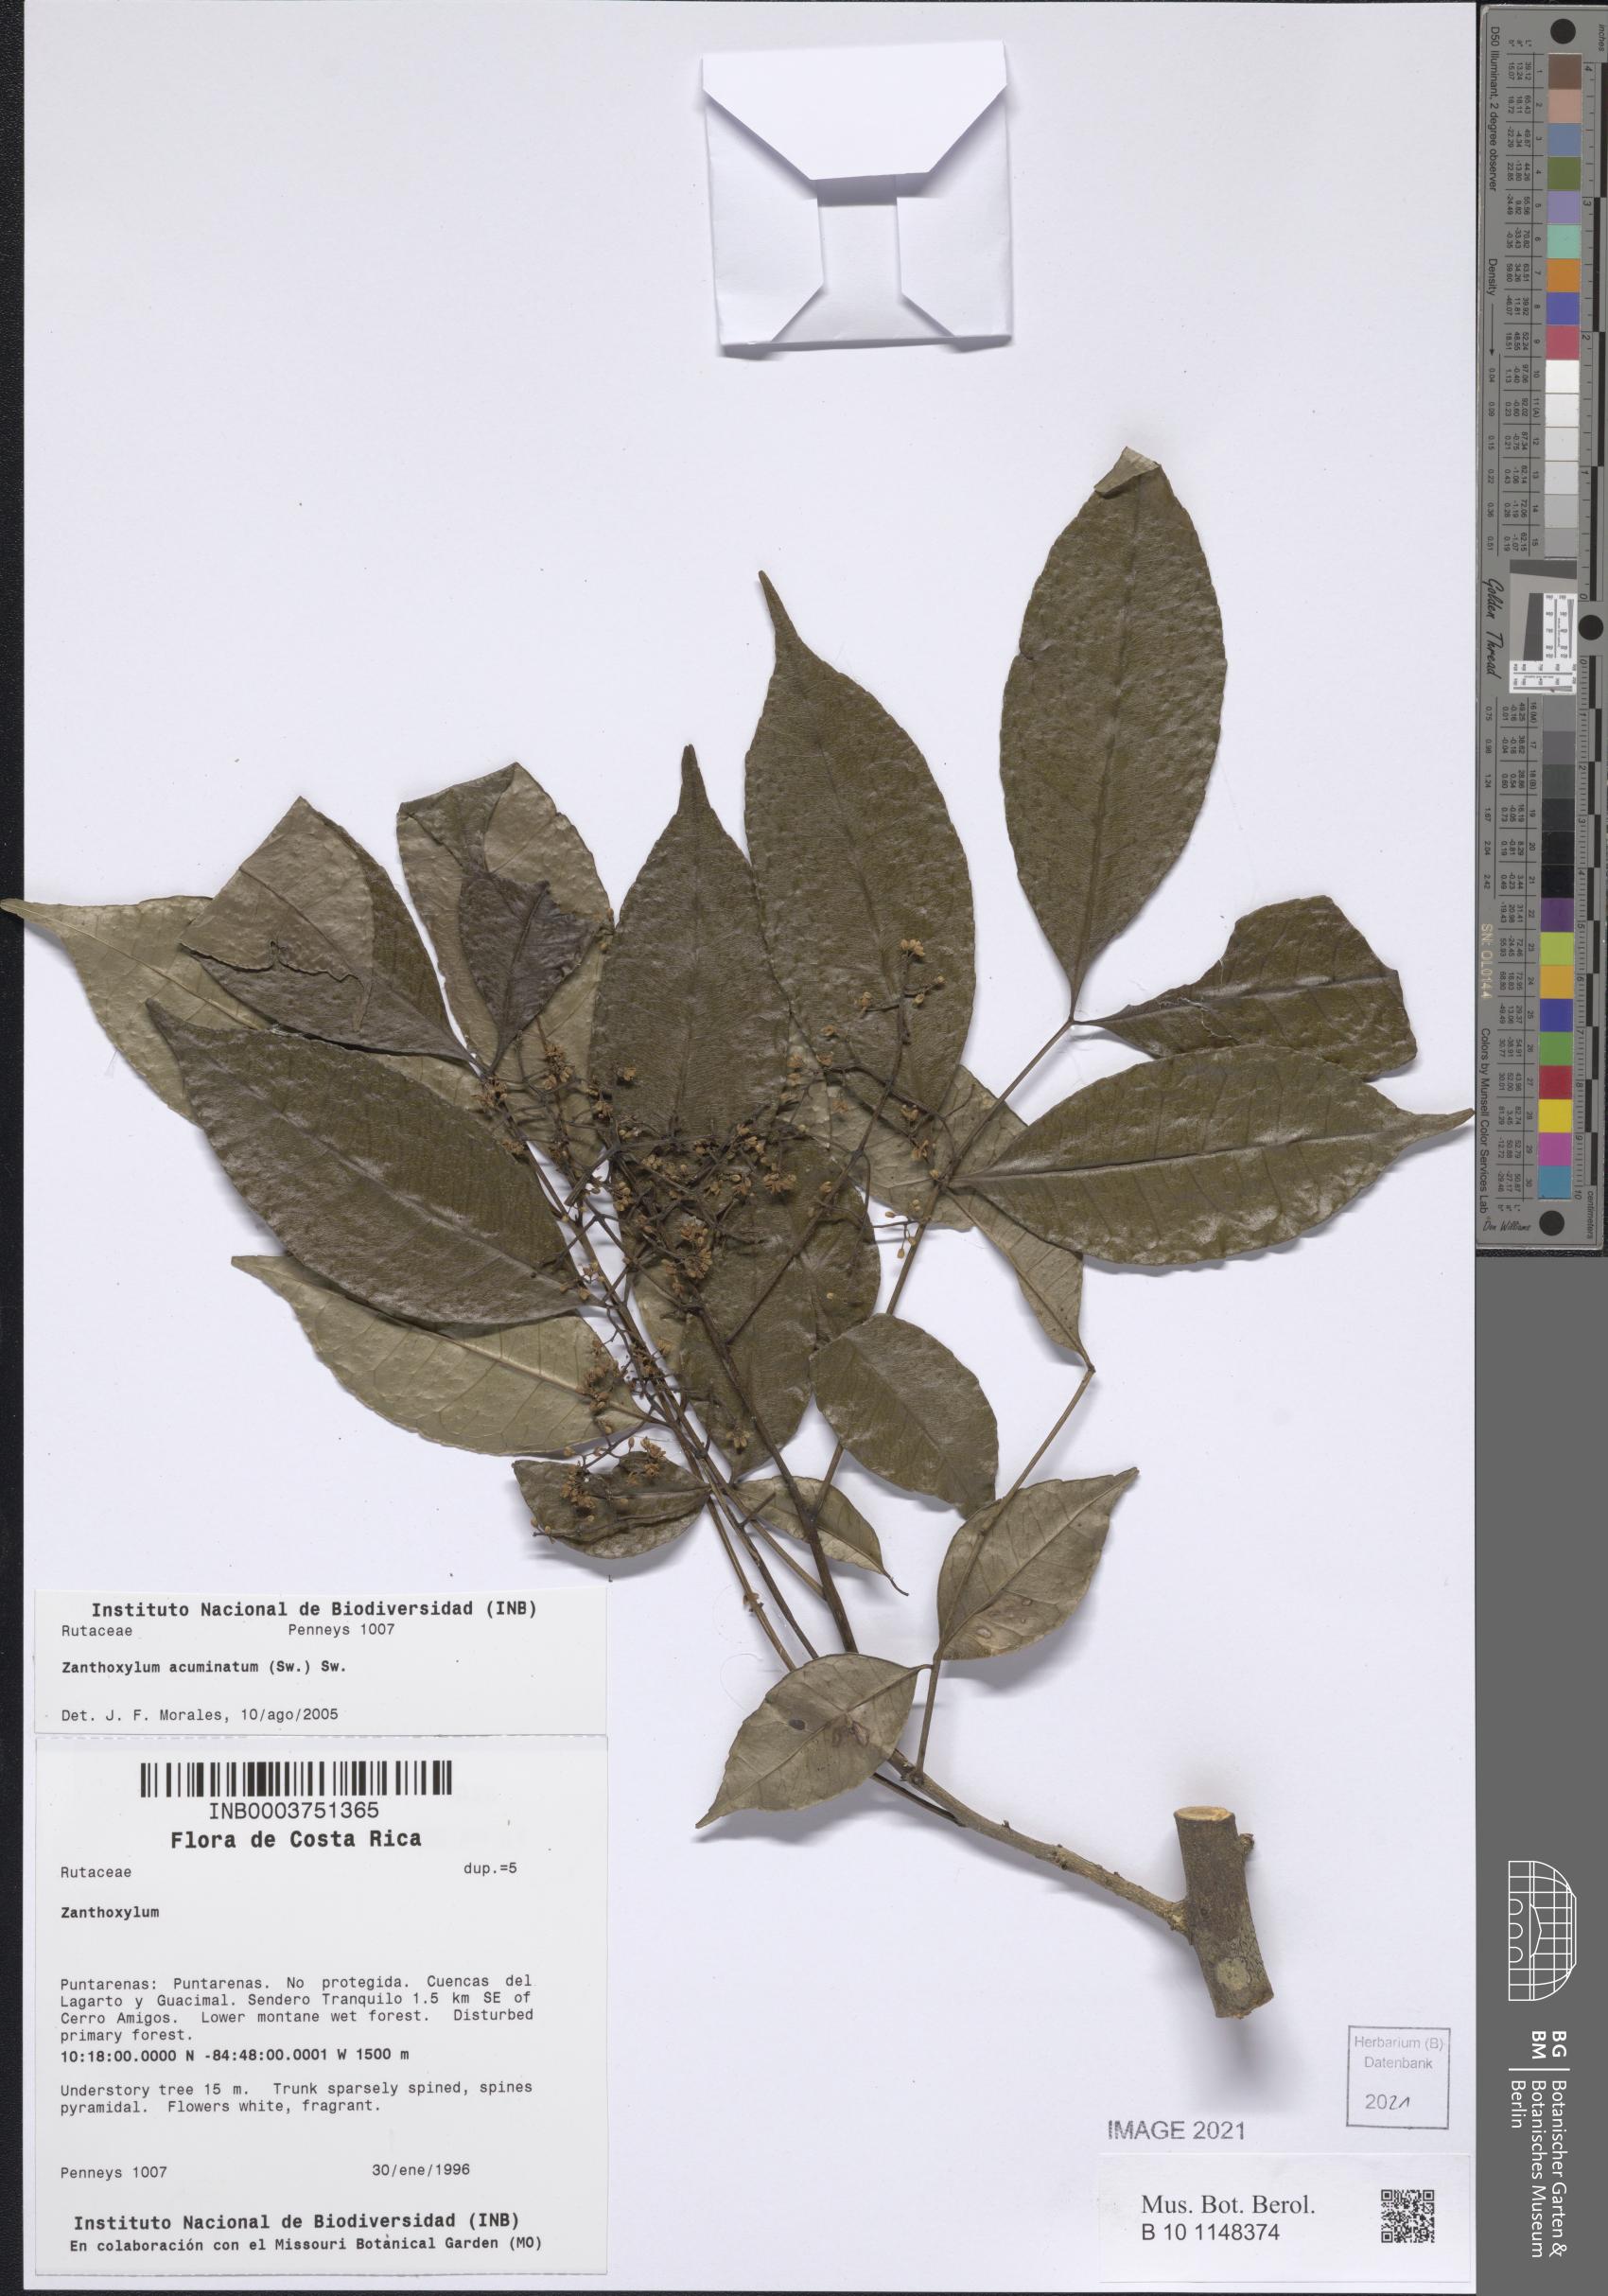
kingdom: Plantae
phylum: Tracheophyta
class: Magnoliopsida
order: Sapindales
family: Rutaceae
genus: Zanthoxylum
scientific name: Zanthoxylum acuminatum
